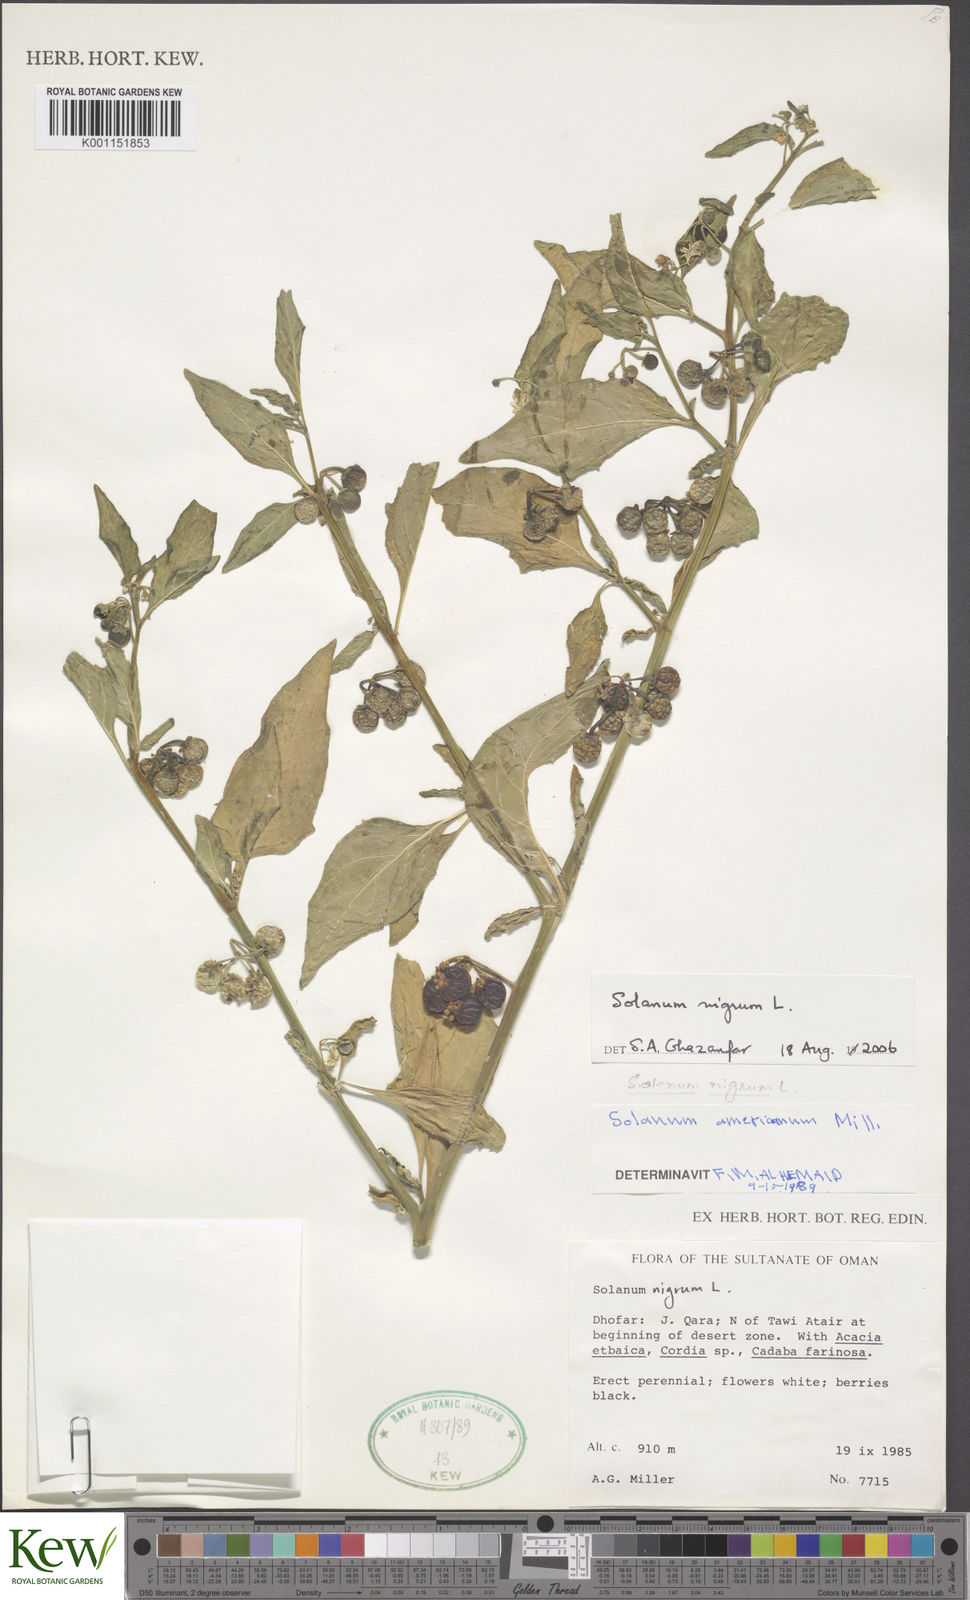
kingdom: Plantae
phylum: Tracheophyta
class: Magnoliopsida
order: Solanales
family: Solanaceae
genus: Solanum
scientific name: Solanum americanum
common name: American black nightshade
